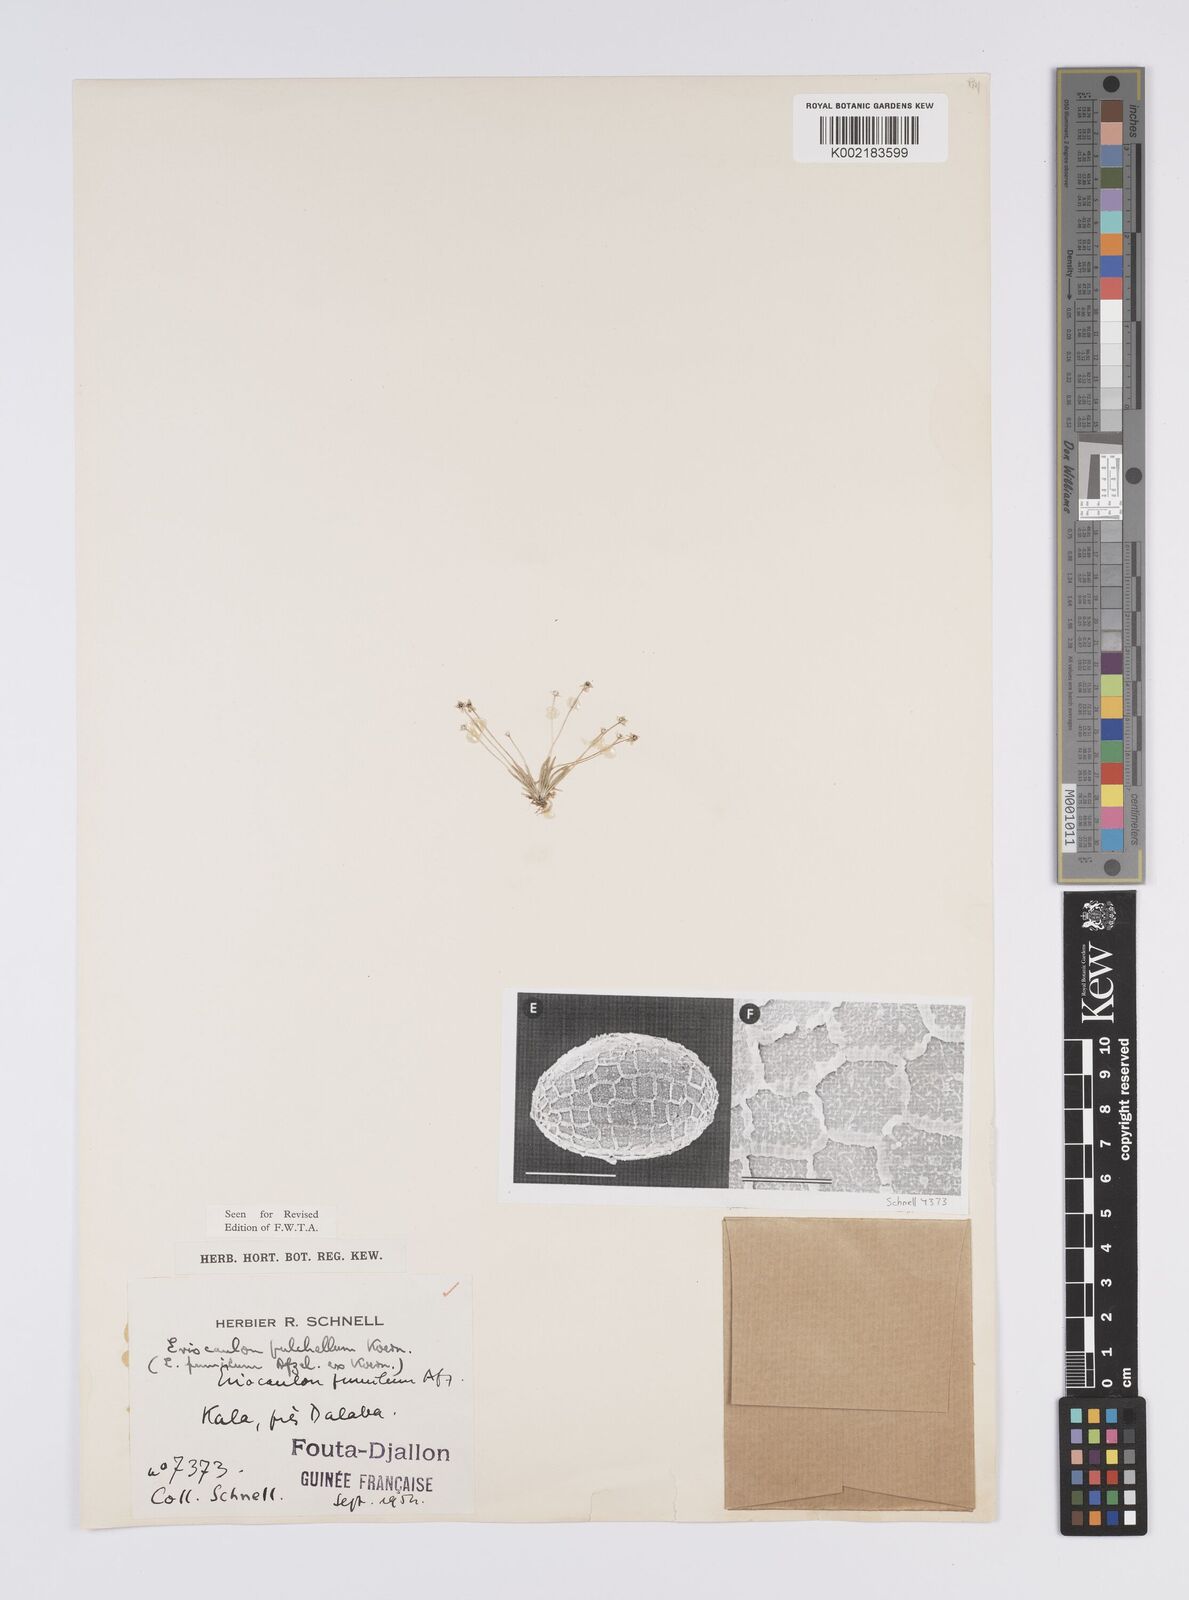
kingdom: Plantae
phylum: Tracheophyta
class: Liliopsida
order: Poales
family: Eriocaulaceae
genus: Eriocaulon
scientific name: Eriocaulon pulchellum
